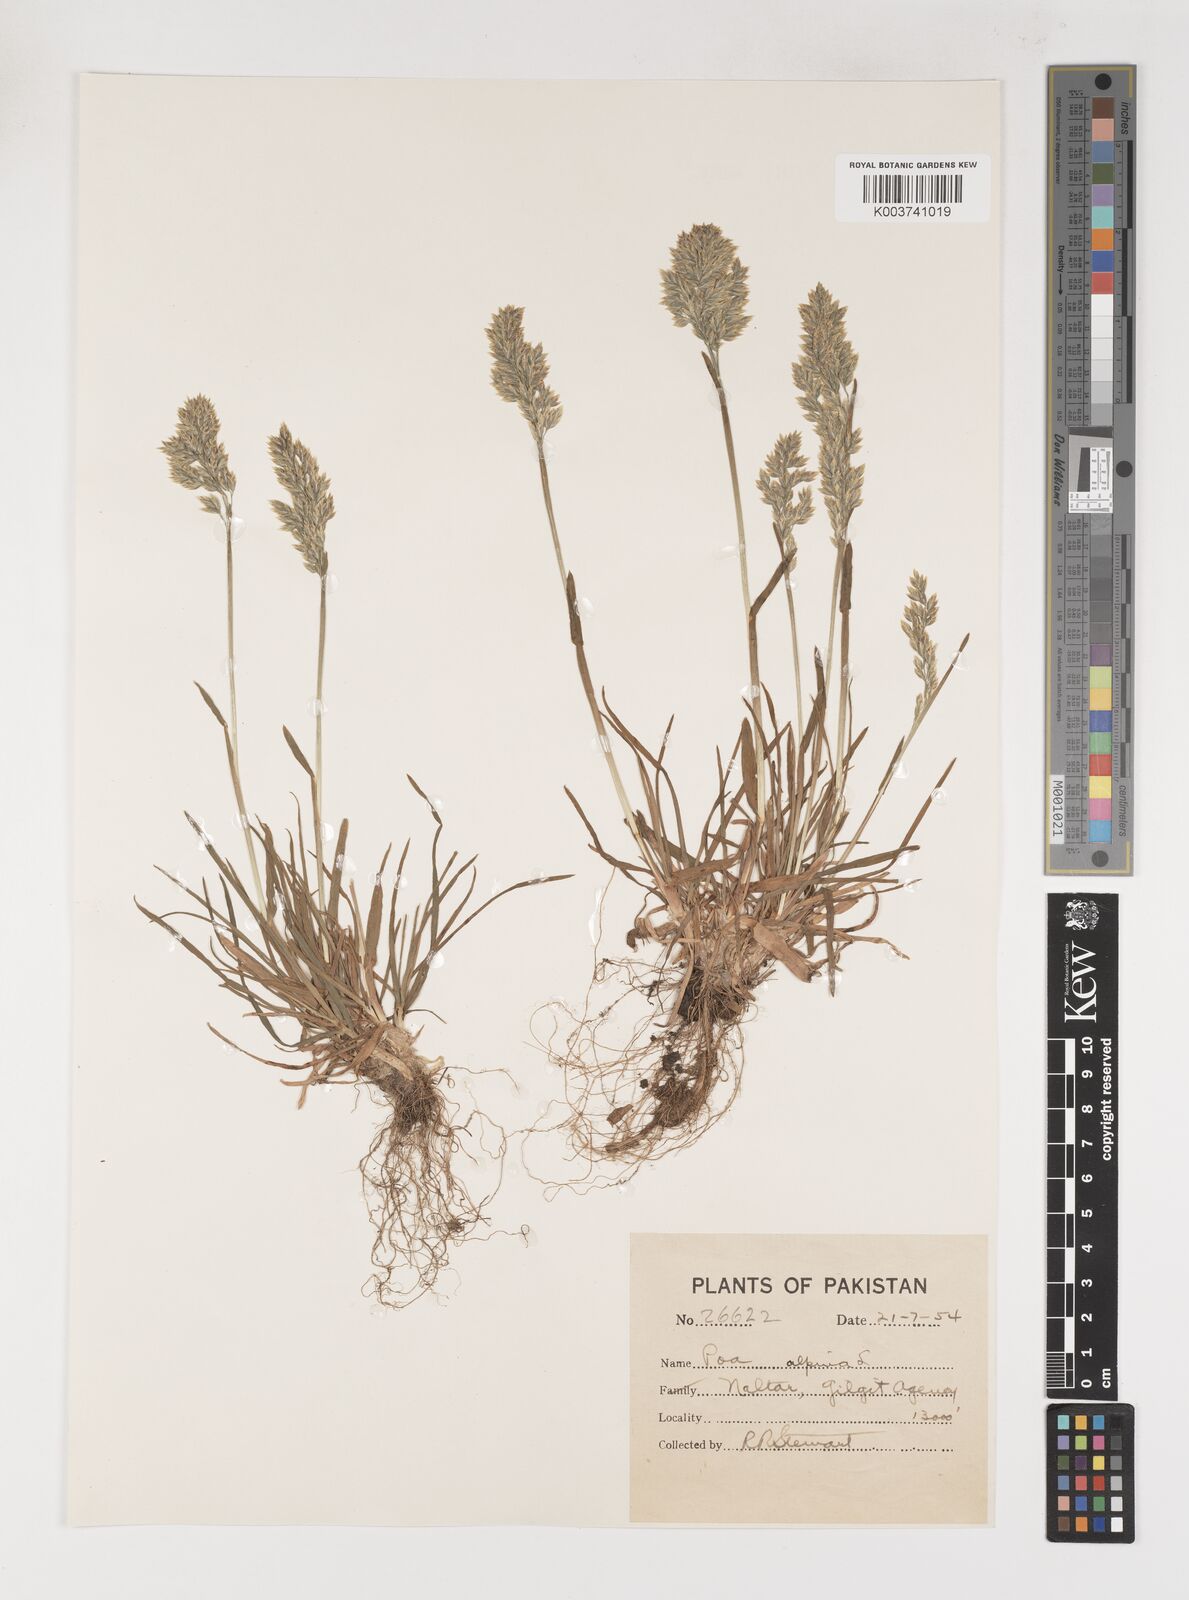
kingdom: Plantae
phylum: Tracheophyta
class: Liliopsida
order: Poales
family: Poaceae
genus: Poa
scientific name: Poa alpina
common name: Alpine bluegrass
